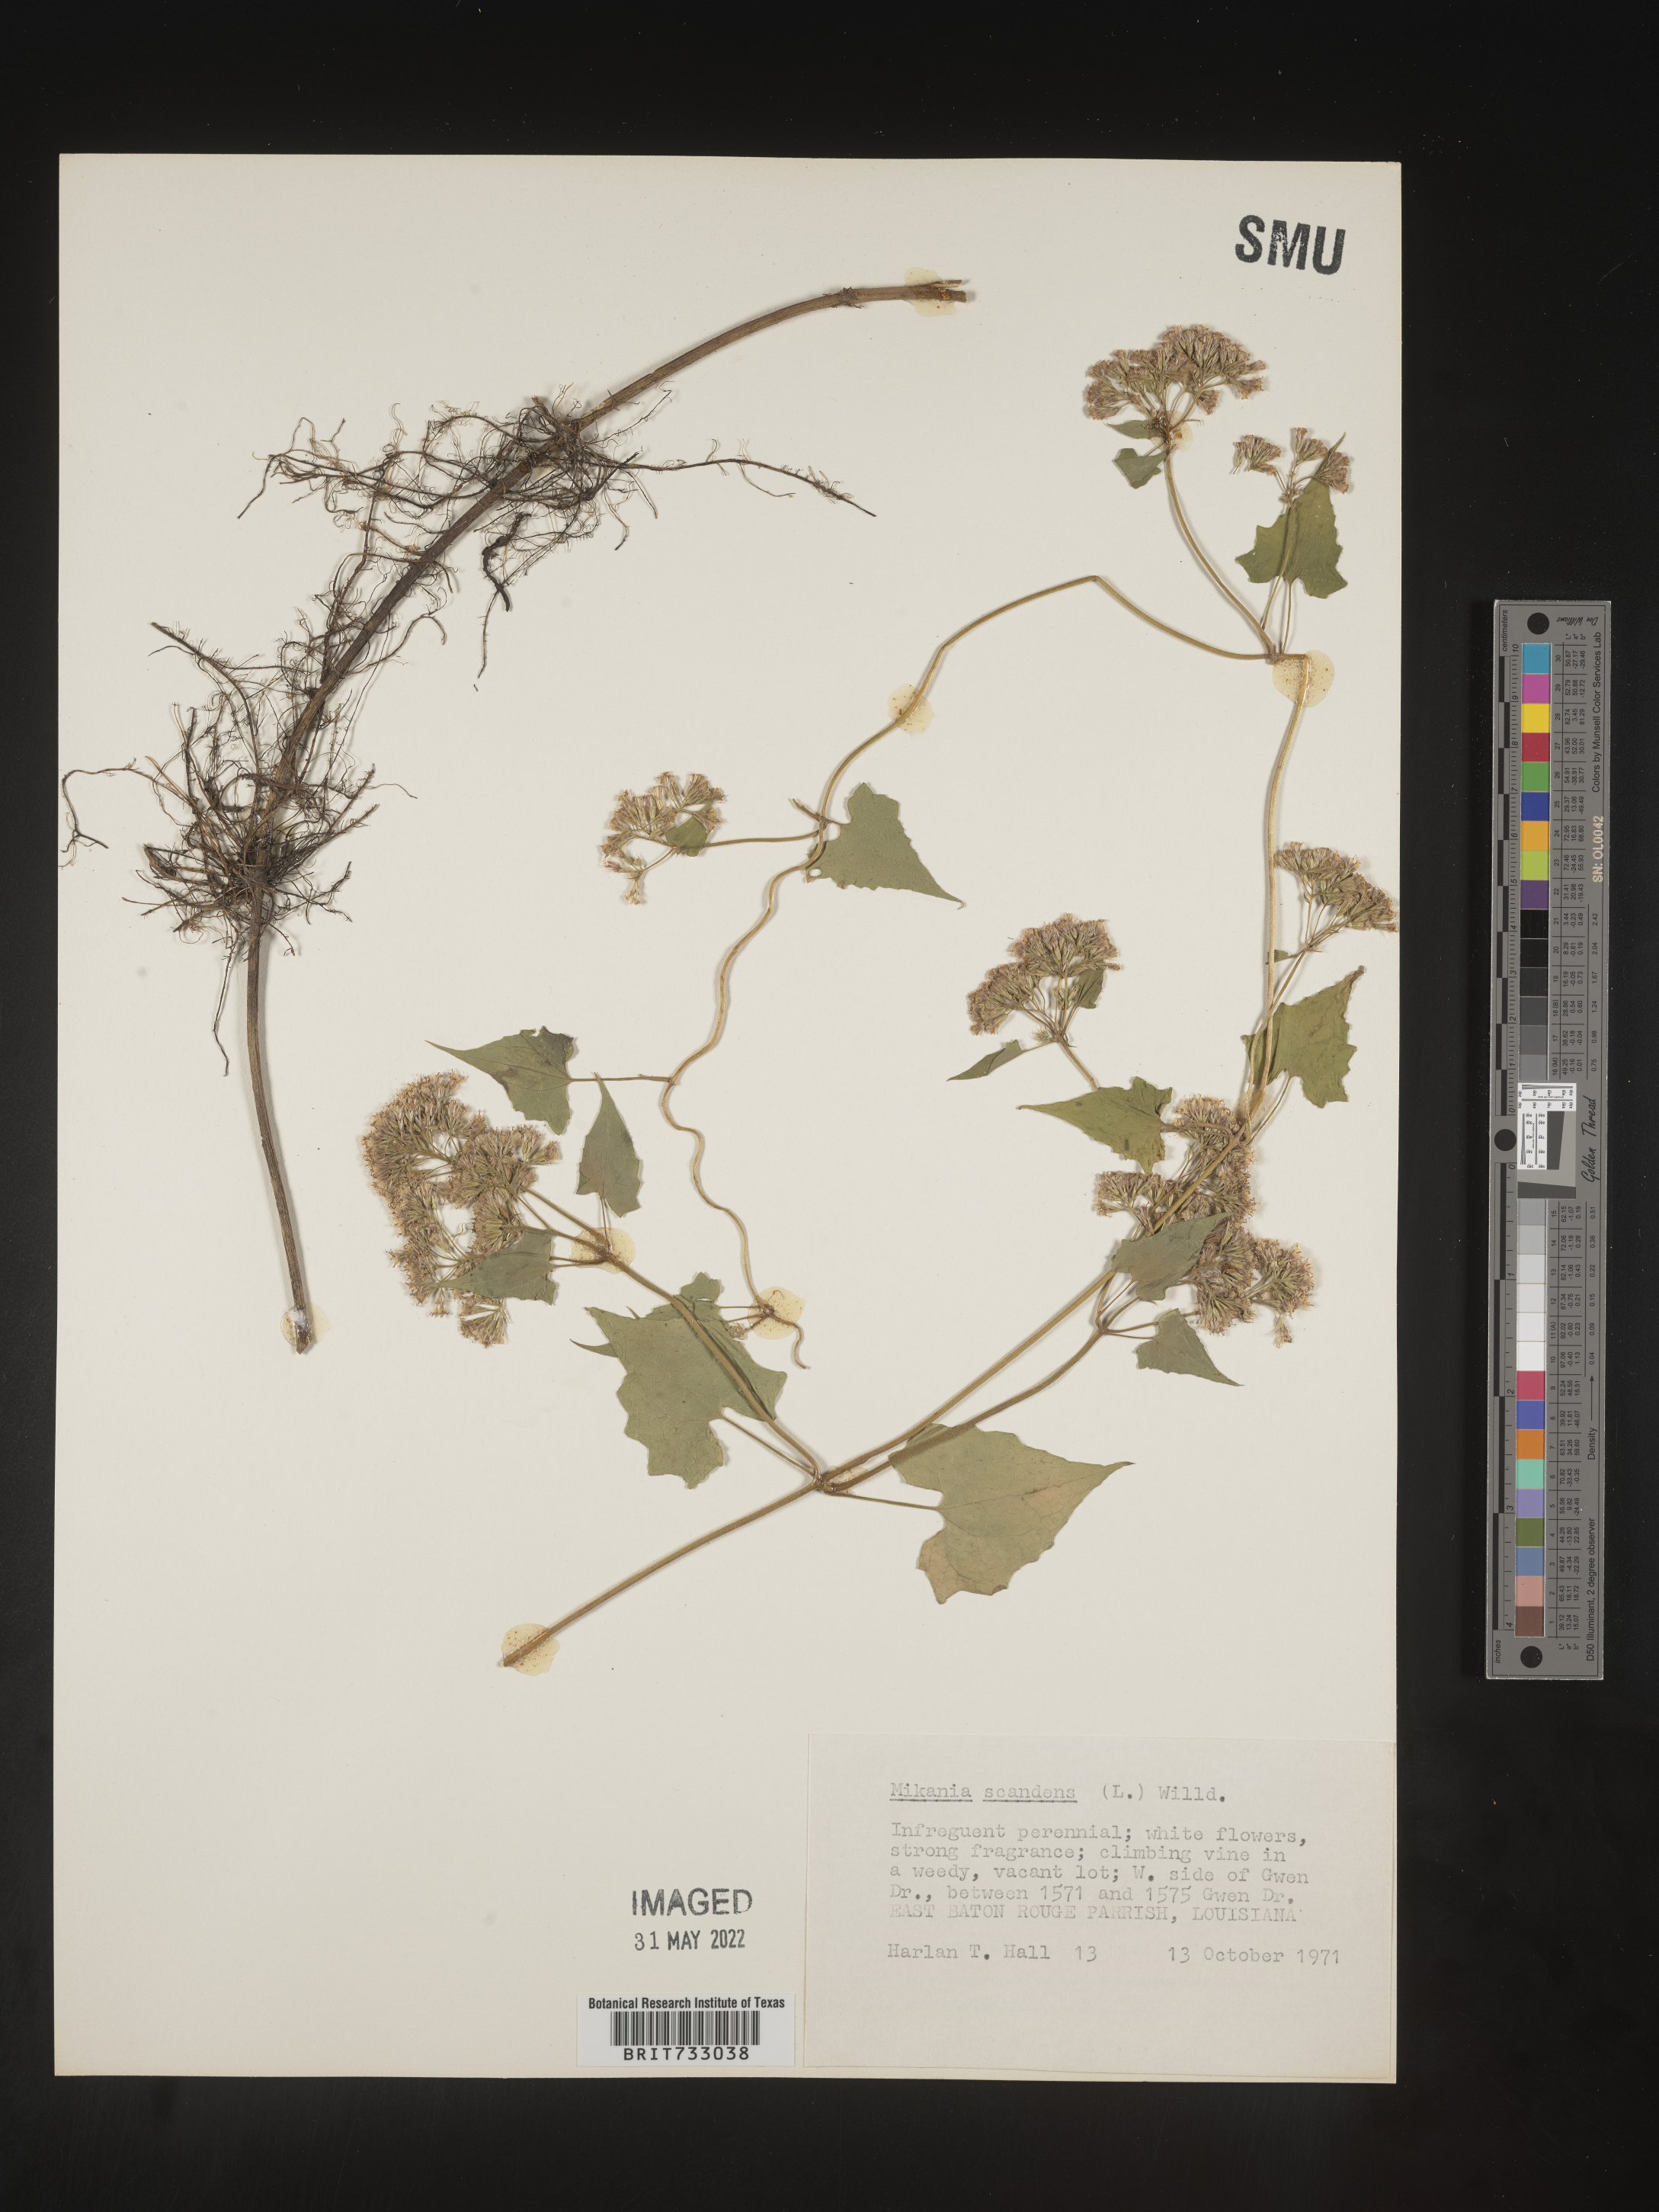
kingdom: Plantae
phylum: Tracheophyta
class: Magnoliopsida
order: Asterales
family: Asteraceae
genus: Mikania
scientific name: Mikania scandens
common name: Climbing hempvine
